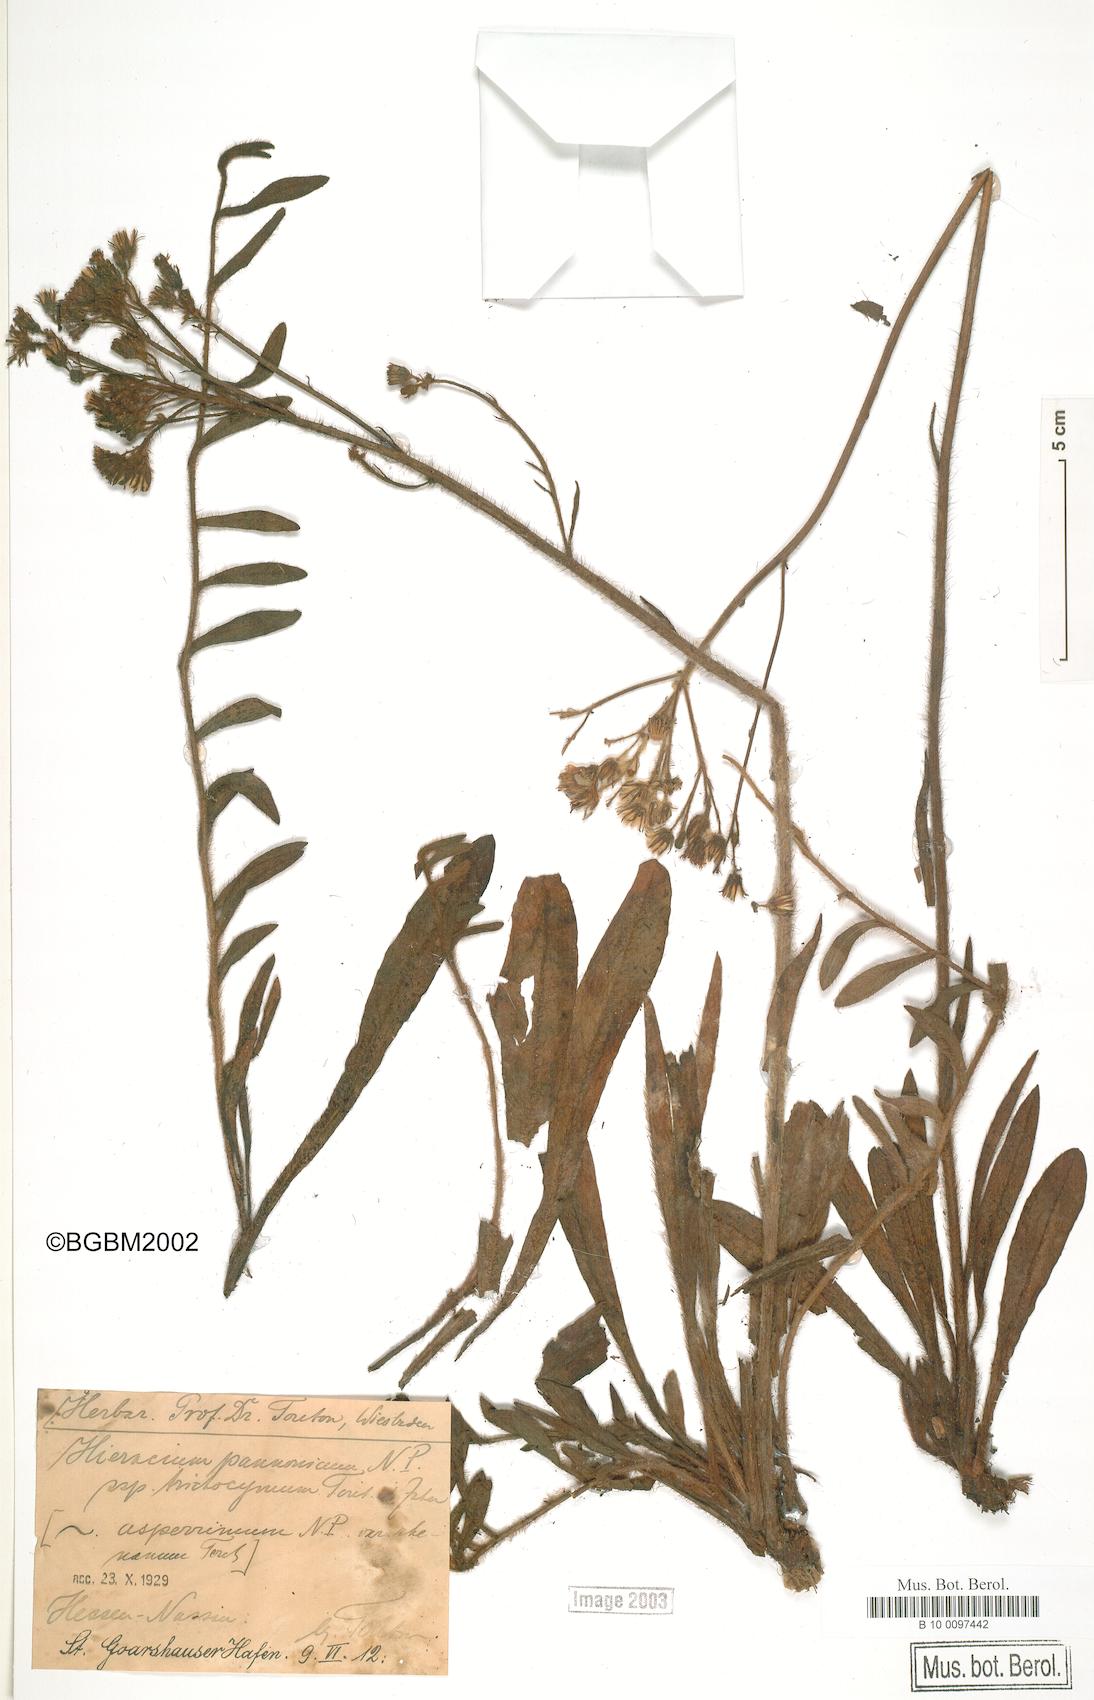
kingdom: Plantae
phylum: Tracheophyta
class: Magnoliopsida
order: Asterales
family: Asteraceae
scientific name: Asteraceae
